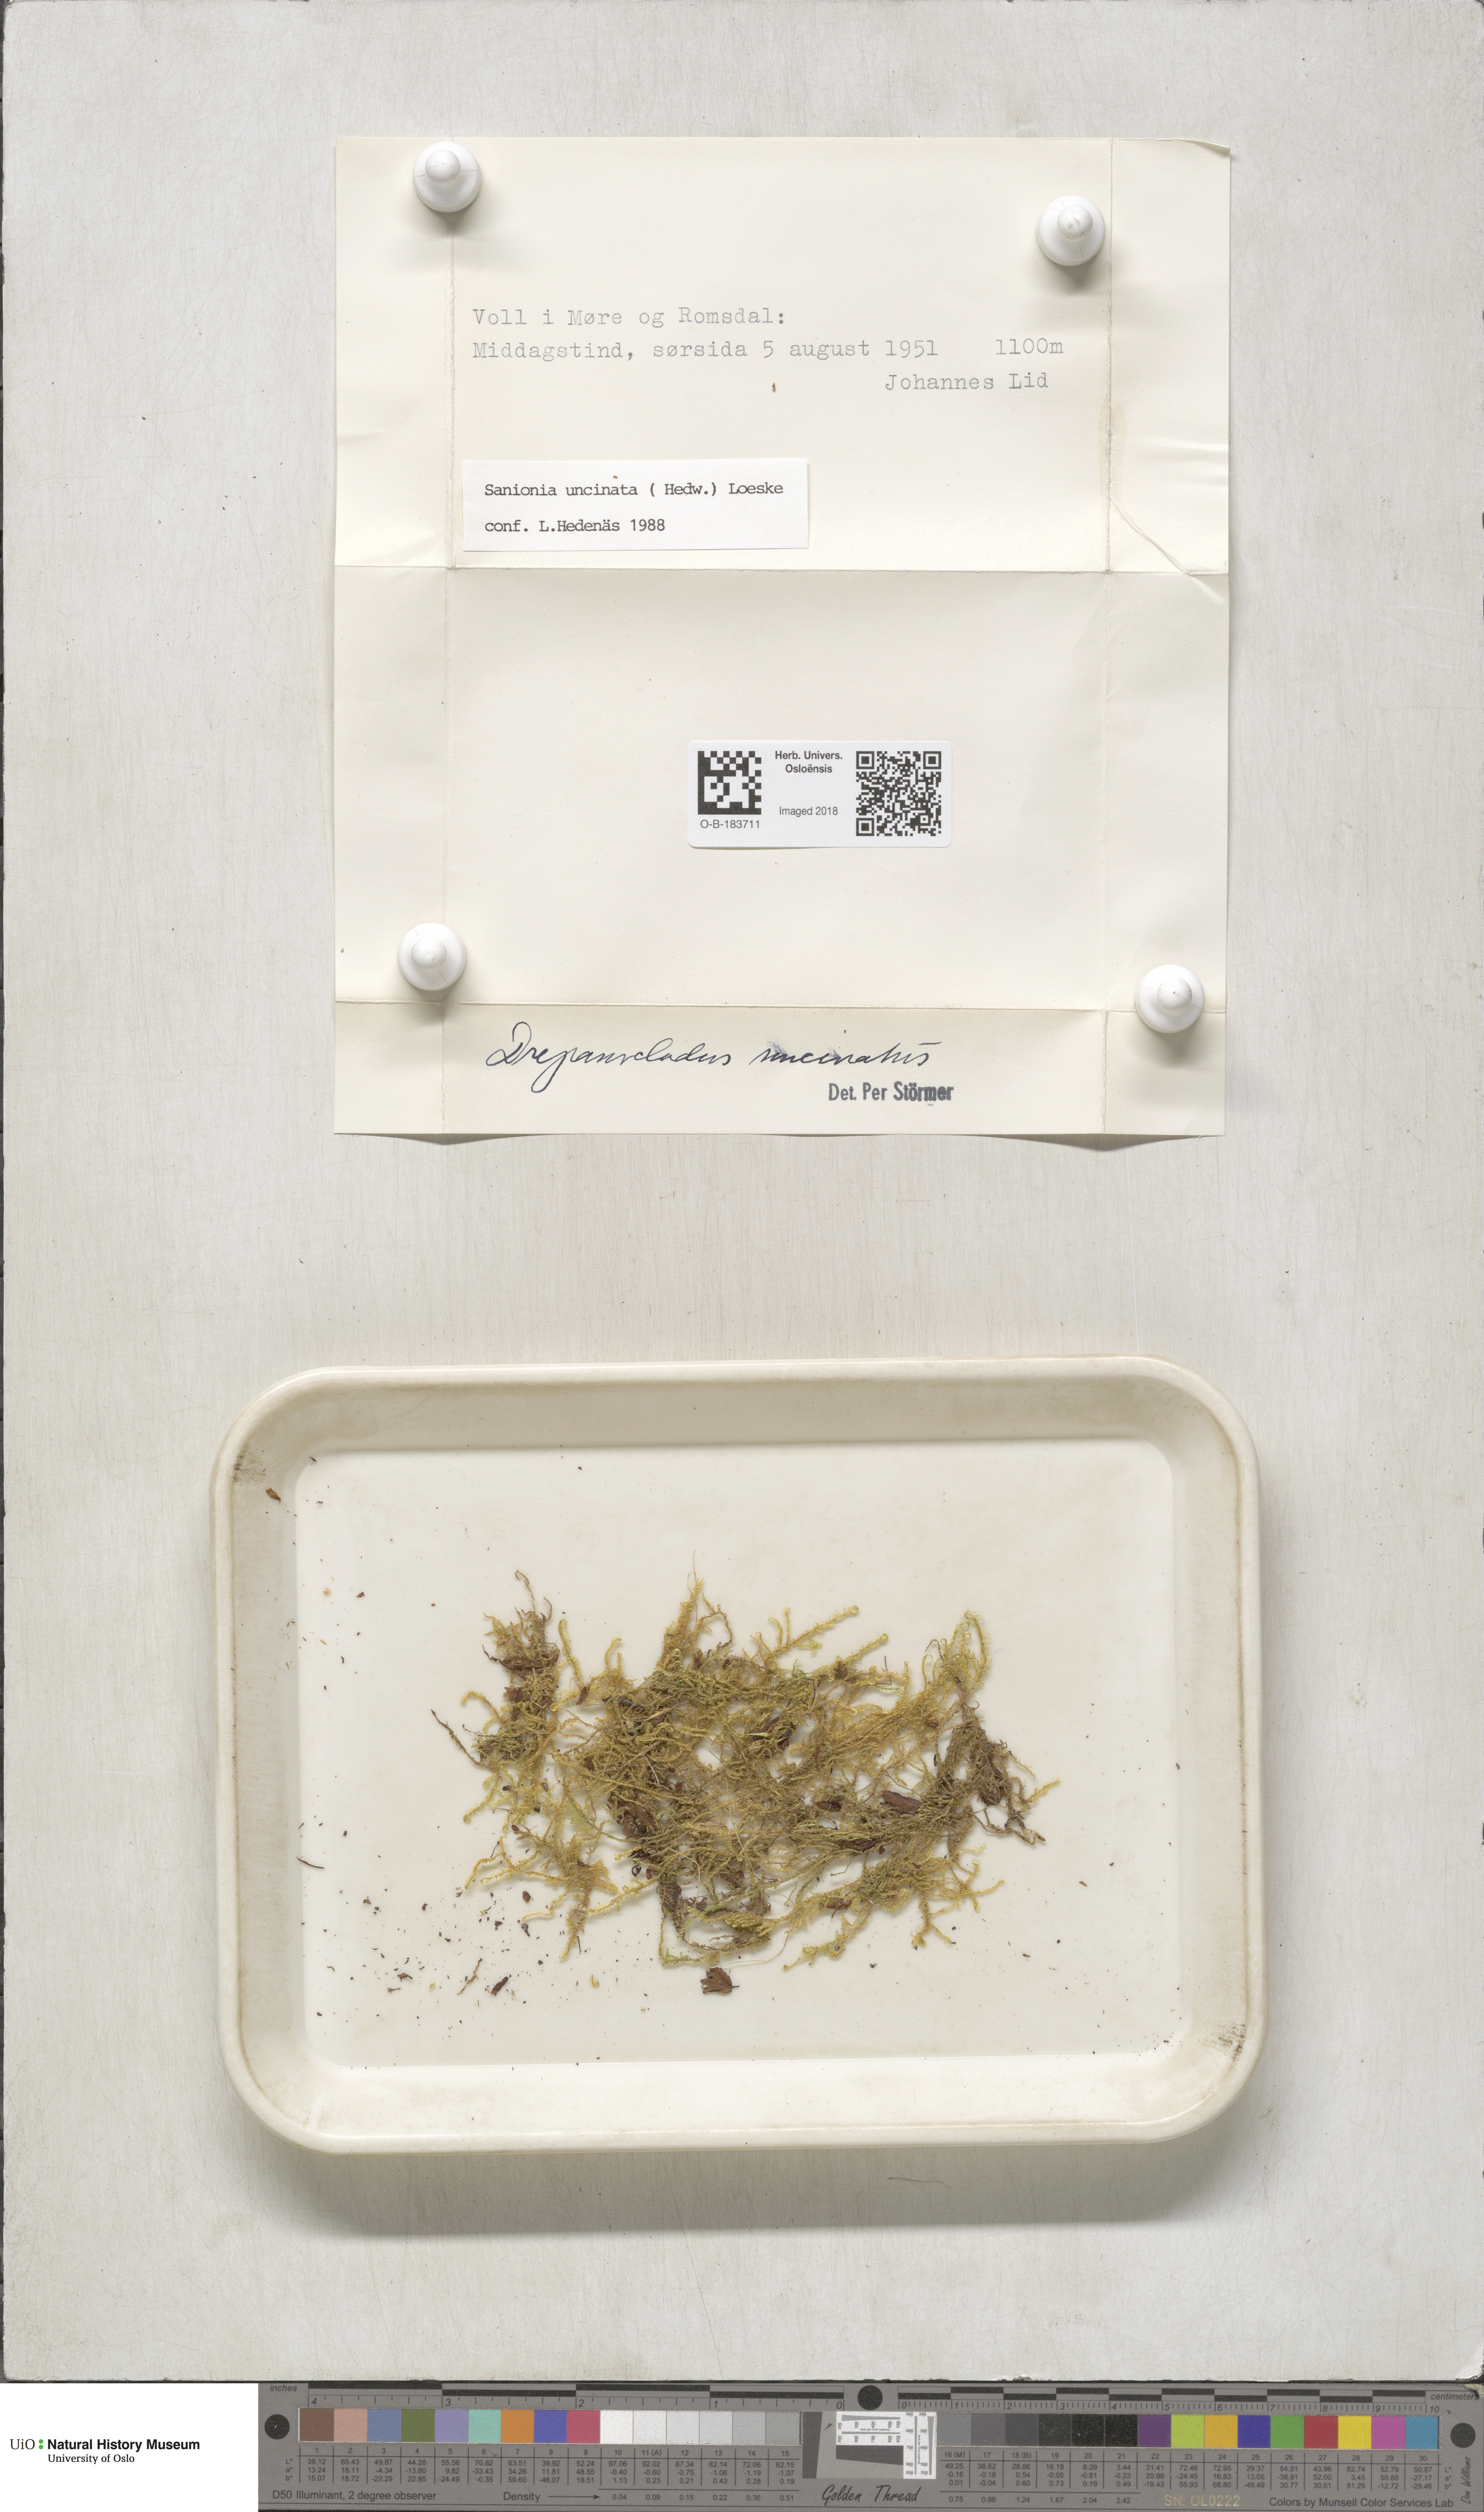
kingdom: Plantae
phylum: Bryophyta
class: Bryopsida
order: Hypnales
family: Scorpidiaceae
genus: Sanionia
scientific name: Sanionia uncinata
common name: Sickle moss
